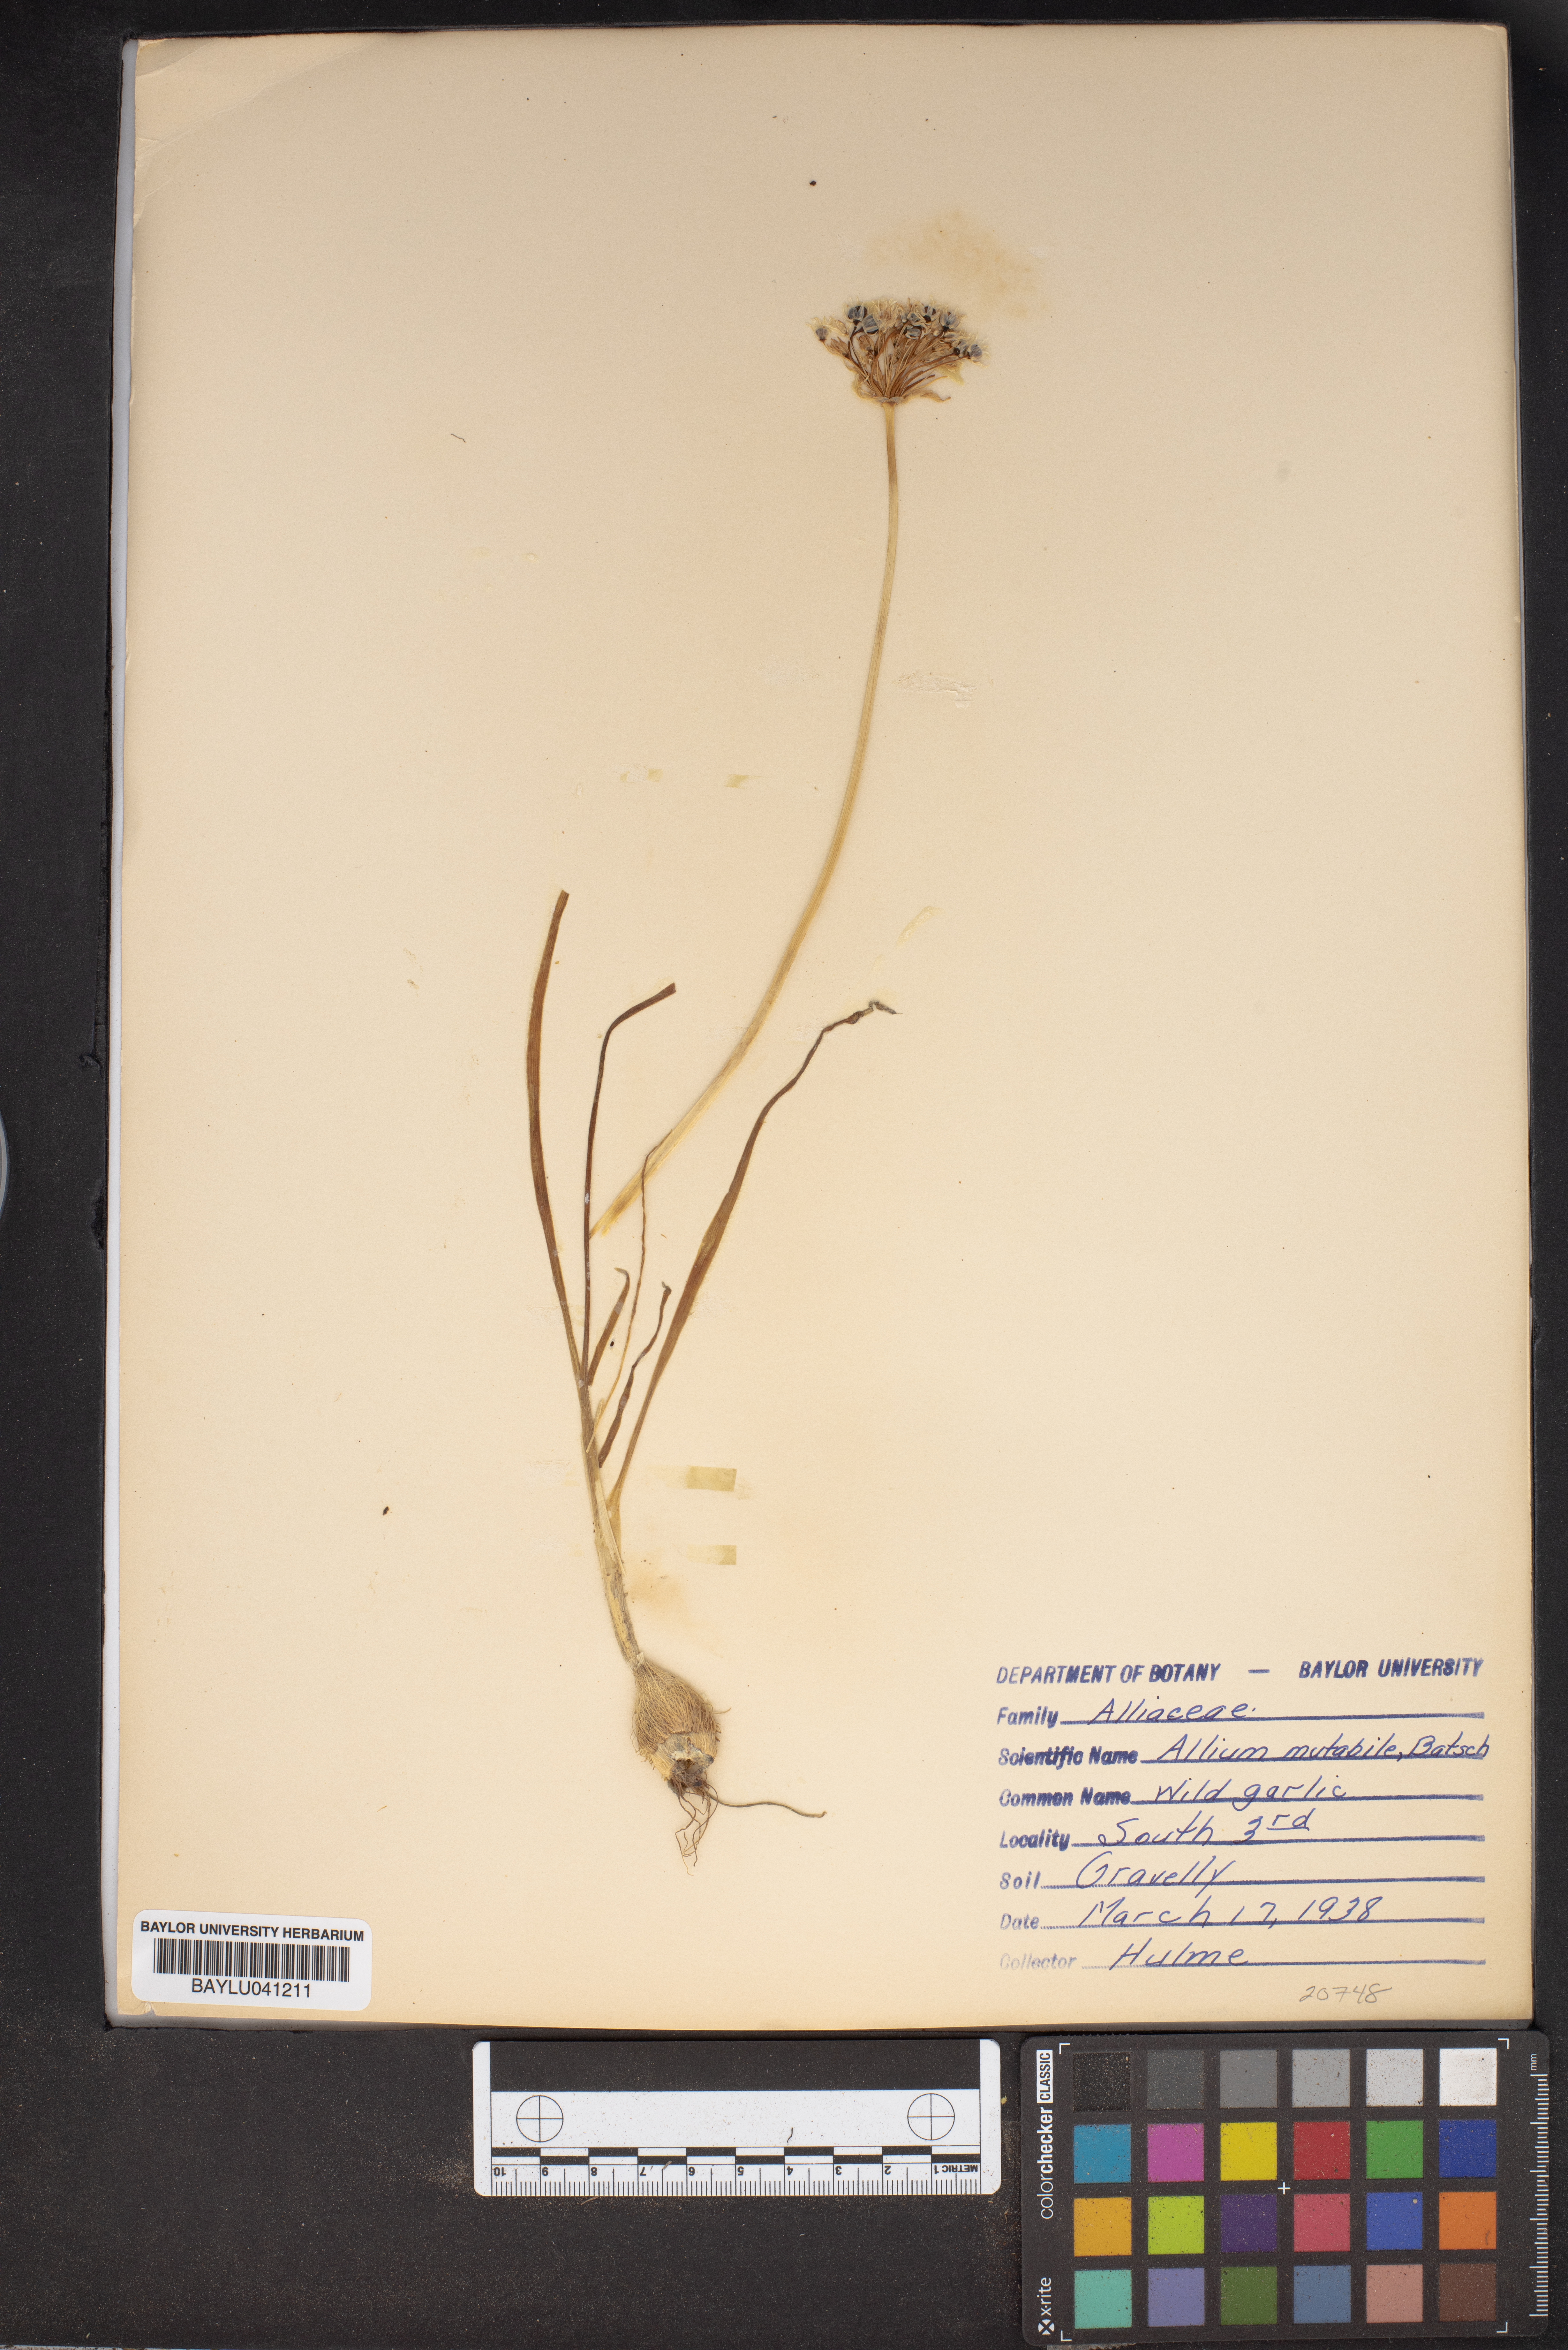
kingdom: Plantae
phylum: Tracheophyta
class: Liliopsida
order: Asparagales
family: Amaryllidaceae
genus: Allium
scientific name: Allium canadense
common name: Meadow garlic
